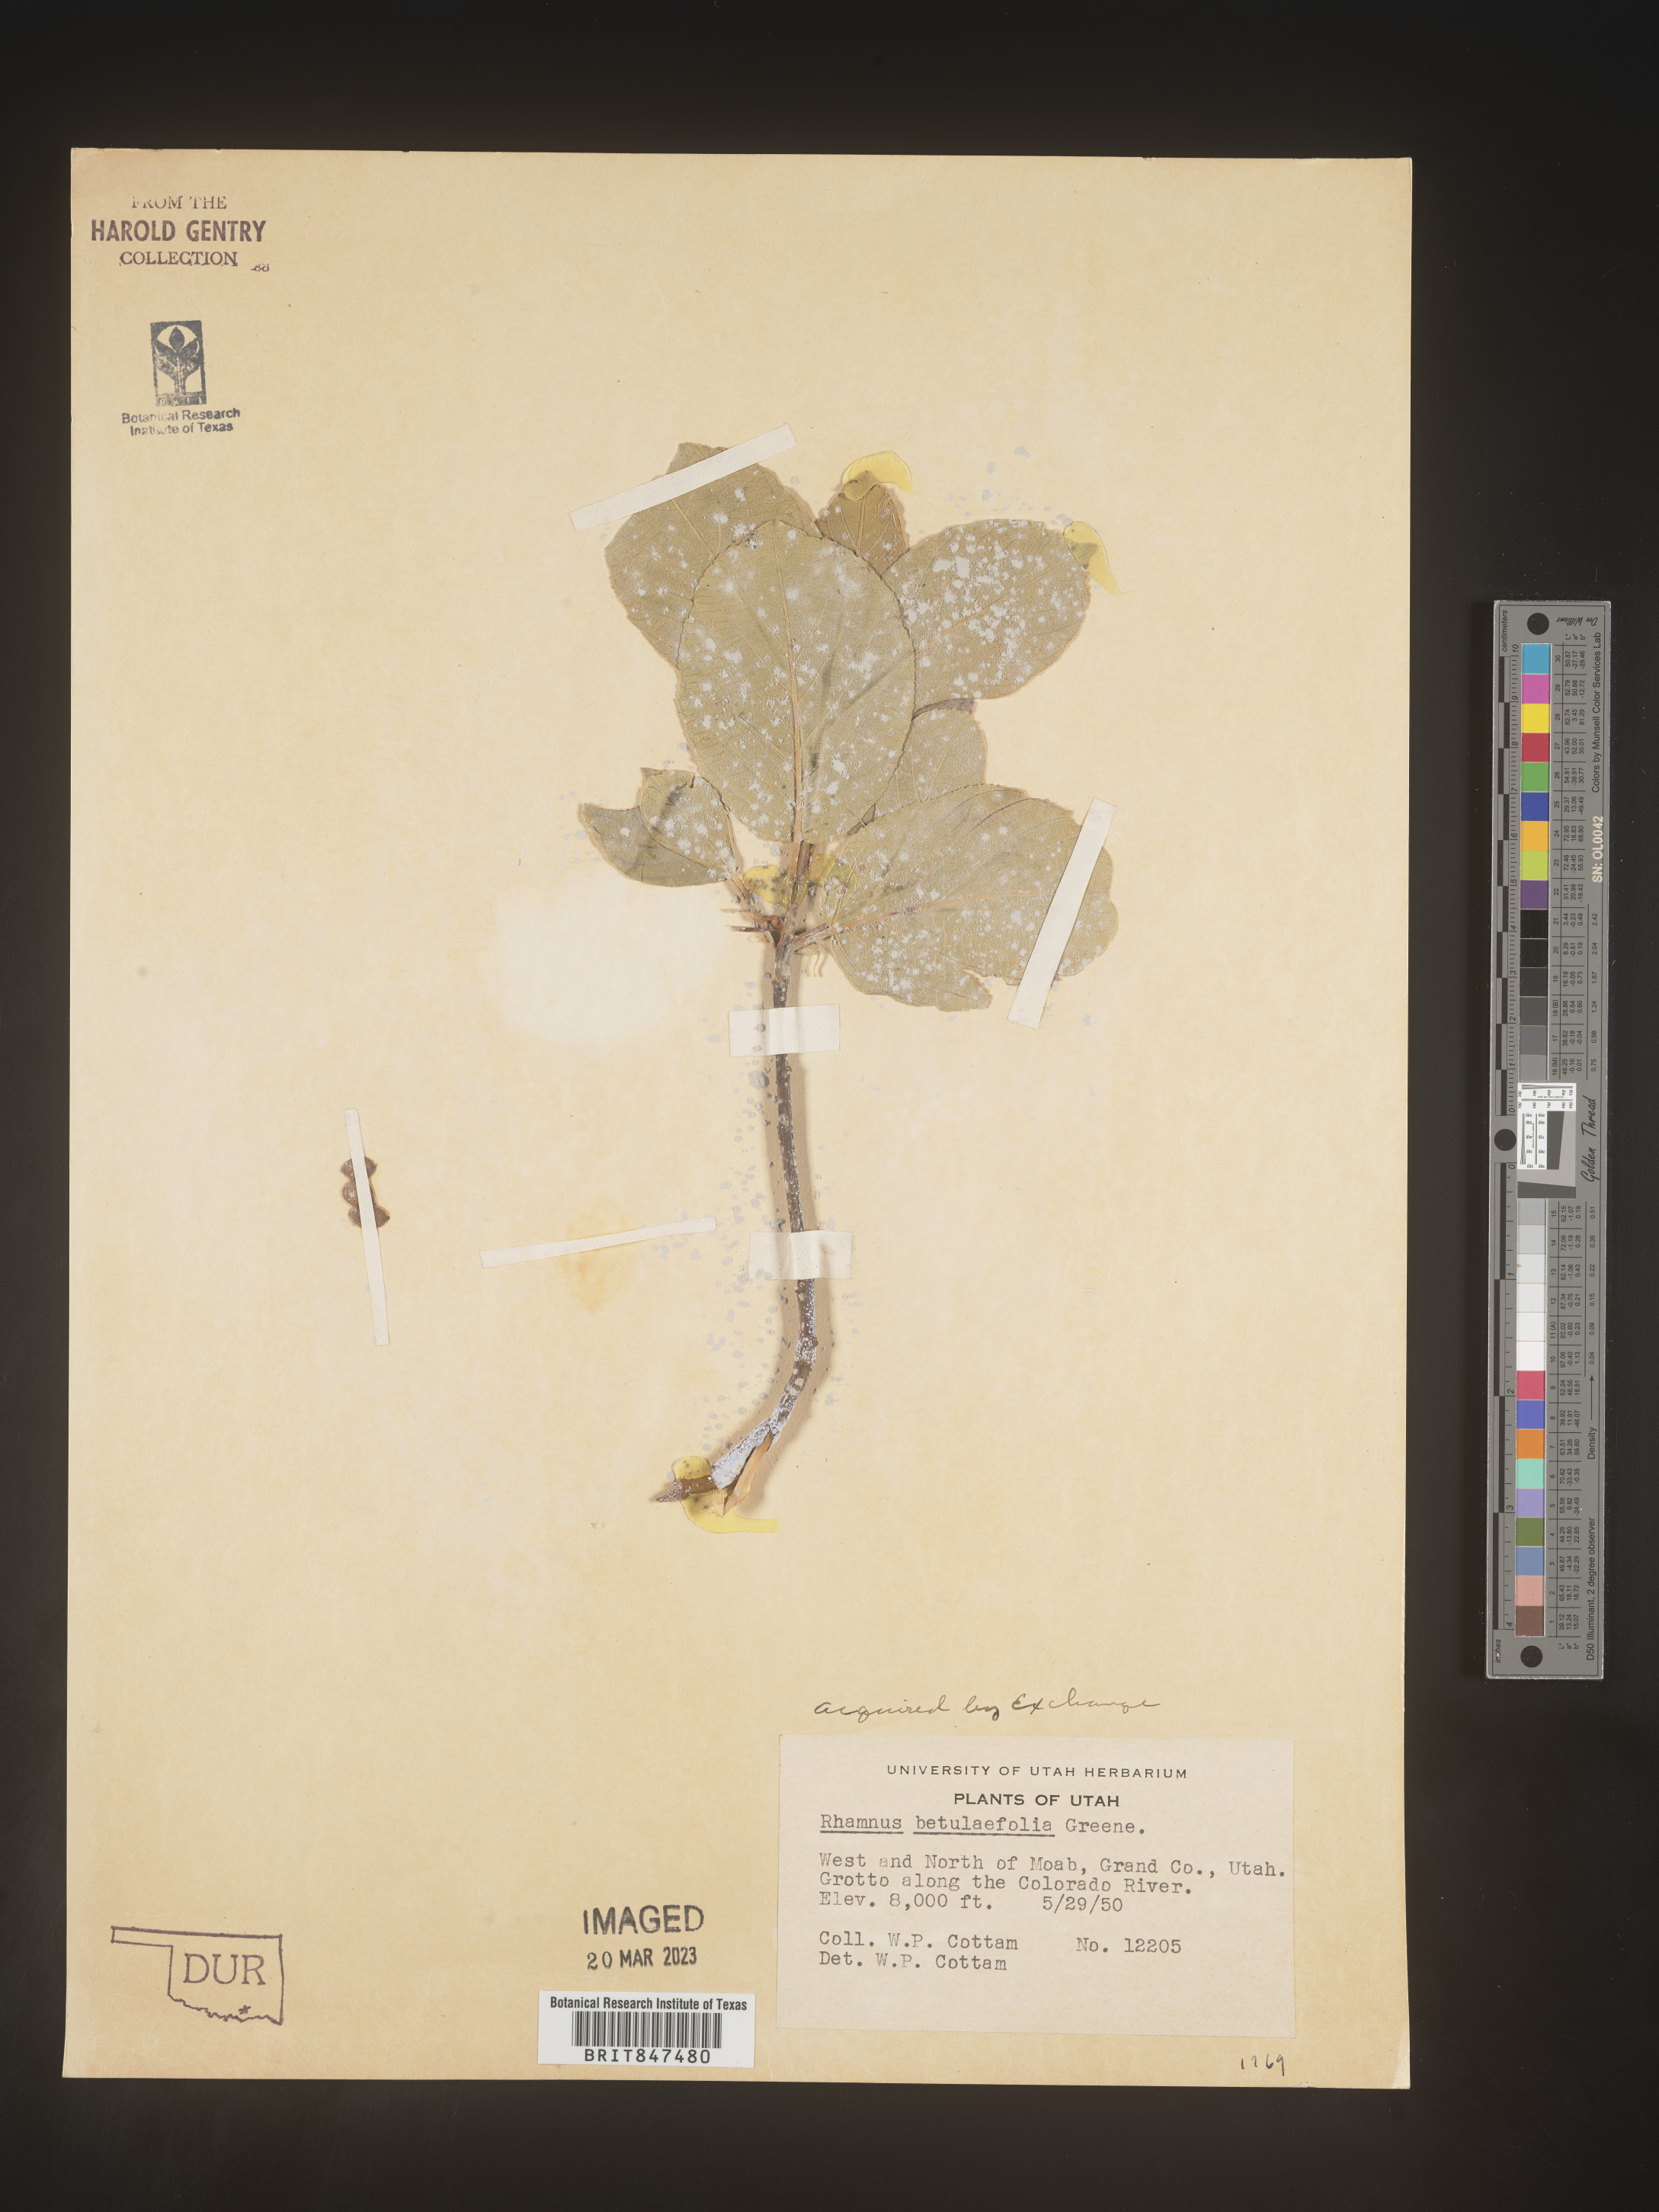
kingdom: Plantae
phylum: Tracheophyta
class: Magnoliopsida
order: Rosales
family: Rhamnaceae
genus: Frangula
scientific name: Frangula betulifolia
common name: Birch-leaf buckthorn
